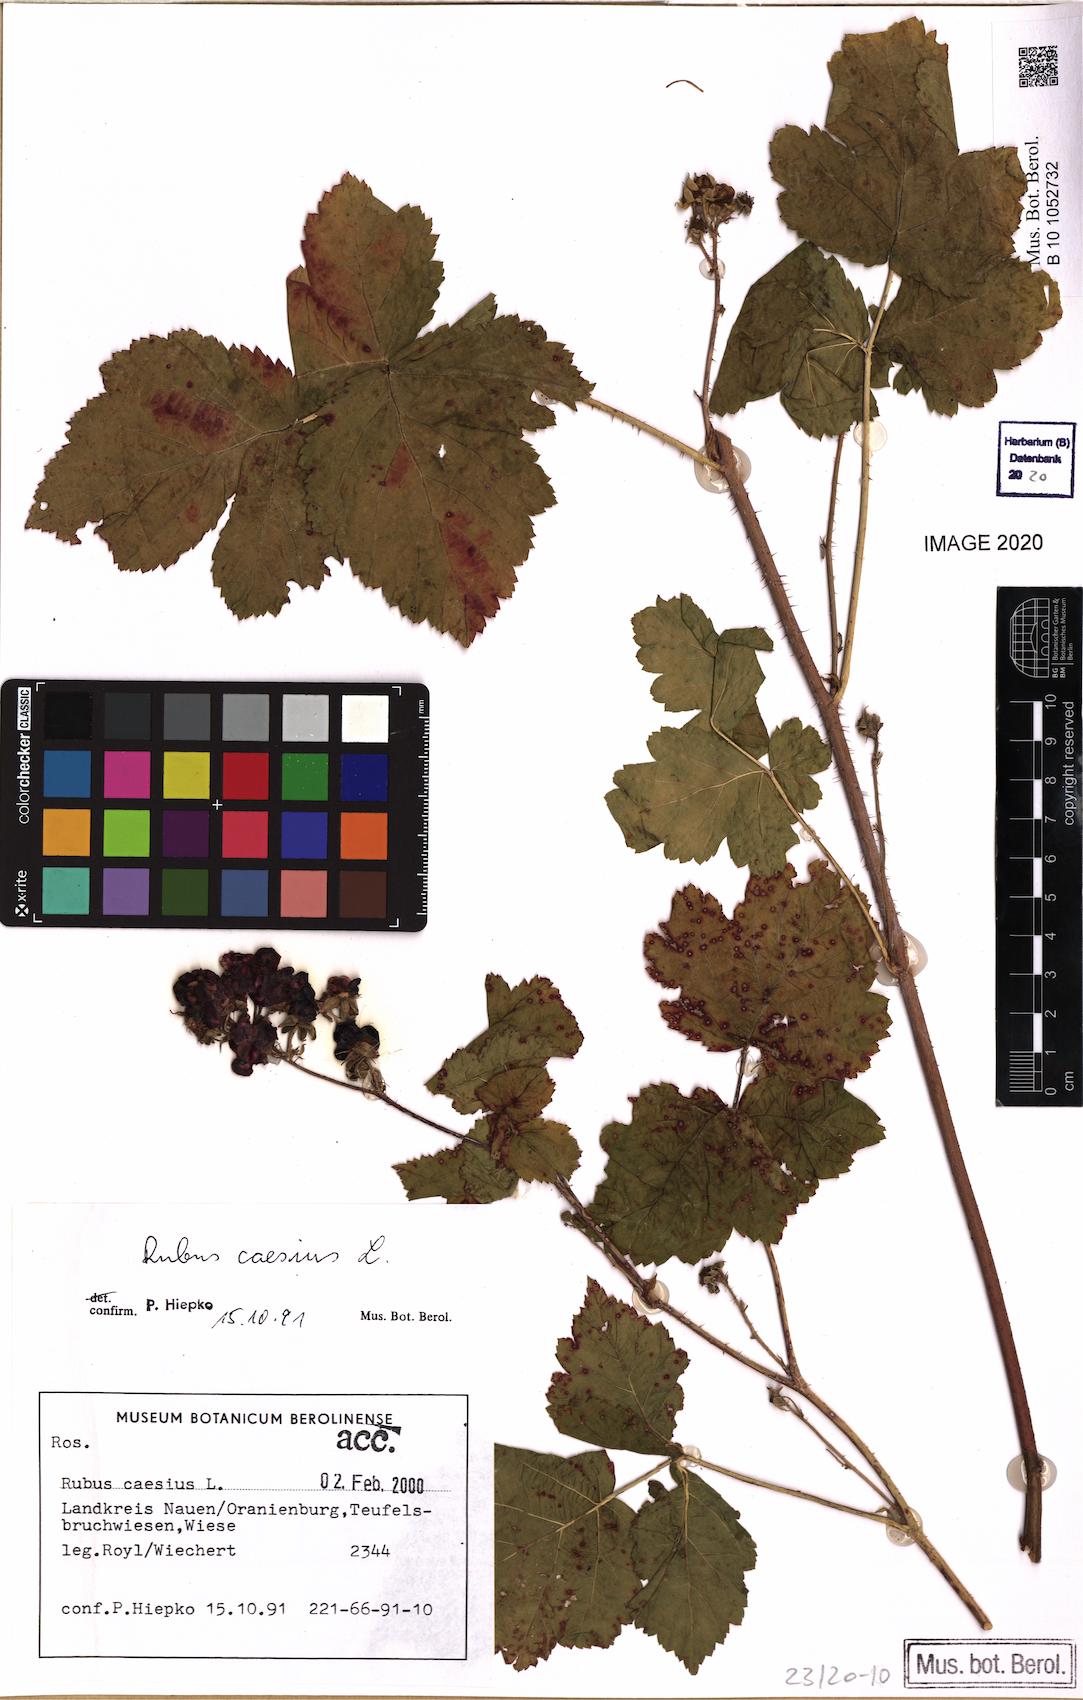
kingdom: Plantae
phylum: Tracheophyta
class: Magnoliopsida
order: Rosales
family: Rosaceae
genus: Rubus
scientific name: Rubus caesius
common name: Dewberry
